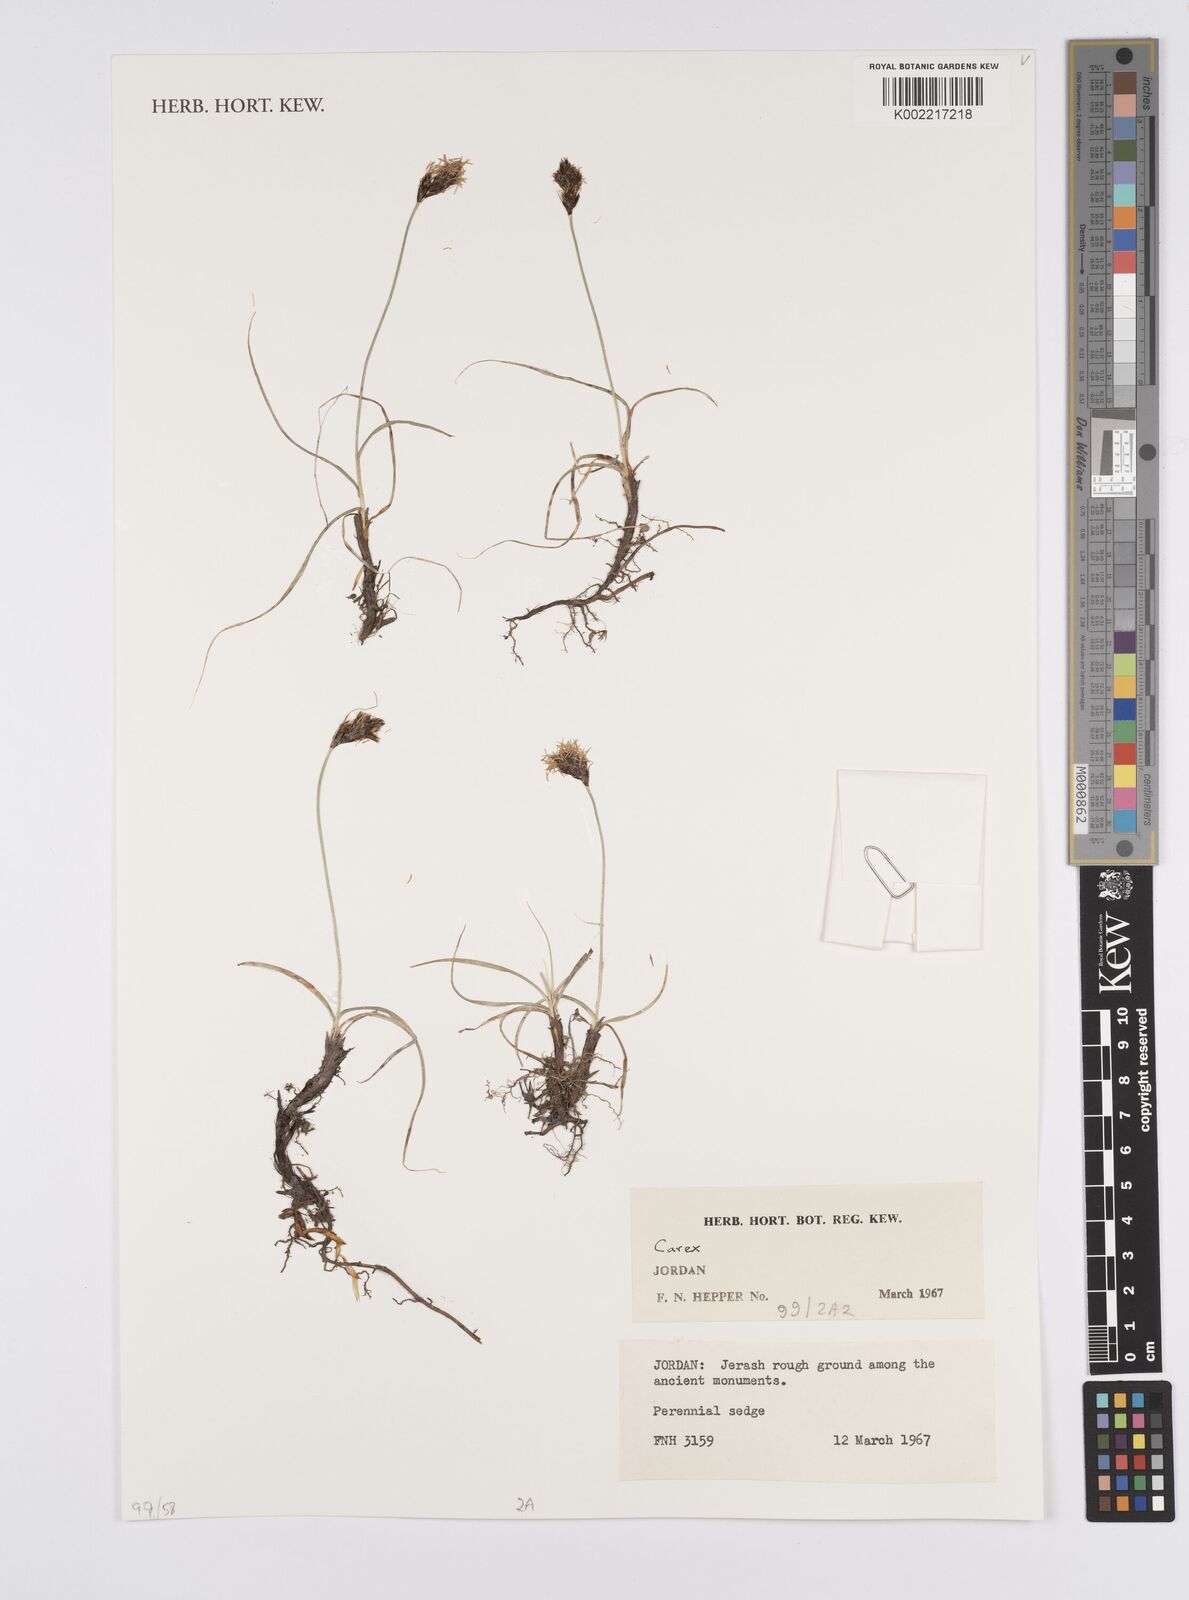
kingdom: Plantae
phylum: Tracheophyta
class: Liliopsida
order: Poales
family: Cyperaceae
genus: Carex
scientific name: Carex
